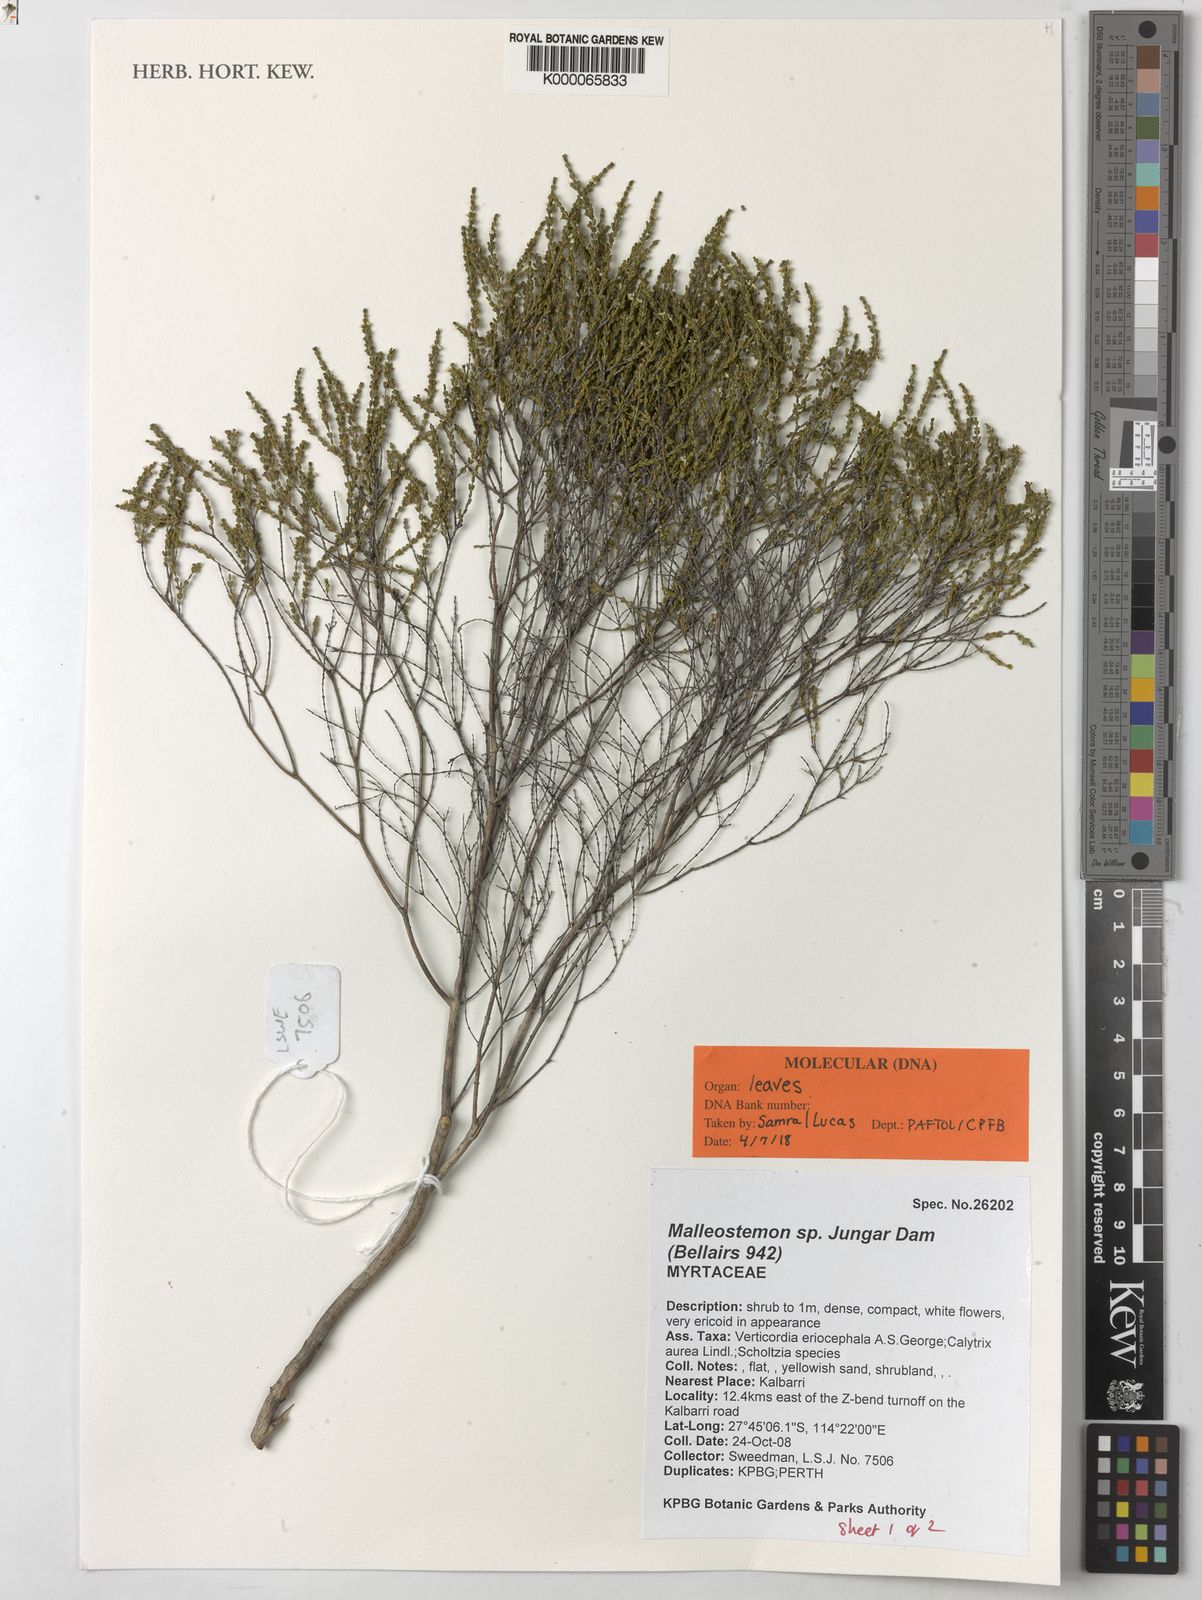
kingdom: Plantae
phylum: Tracheophyta
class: Magnoliopsida
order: Myrtales
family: Myrtaceae
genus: Malleostemon
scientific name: Malleostemon
